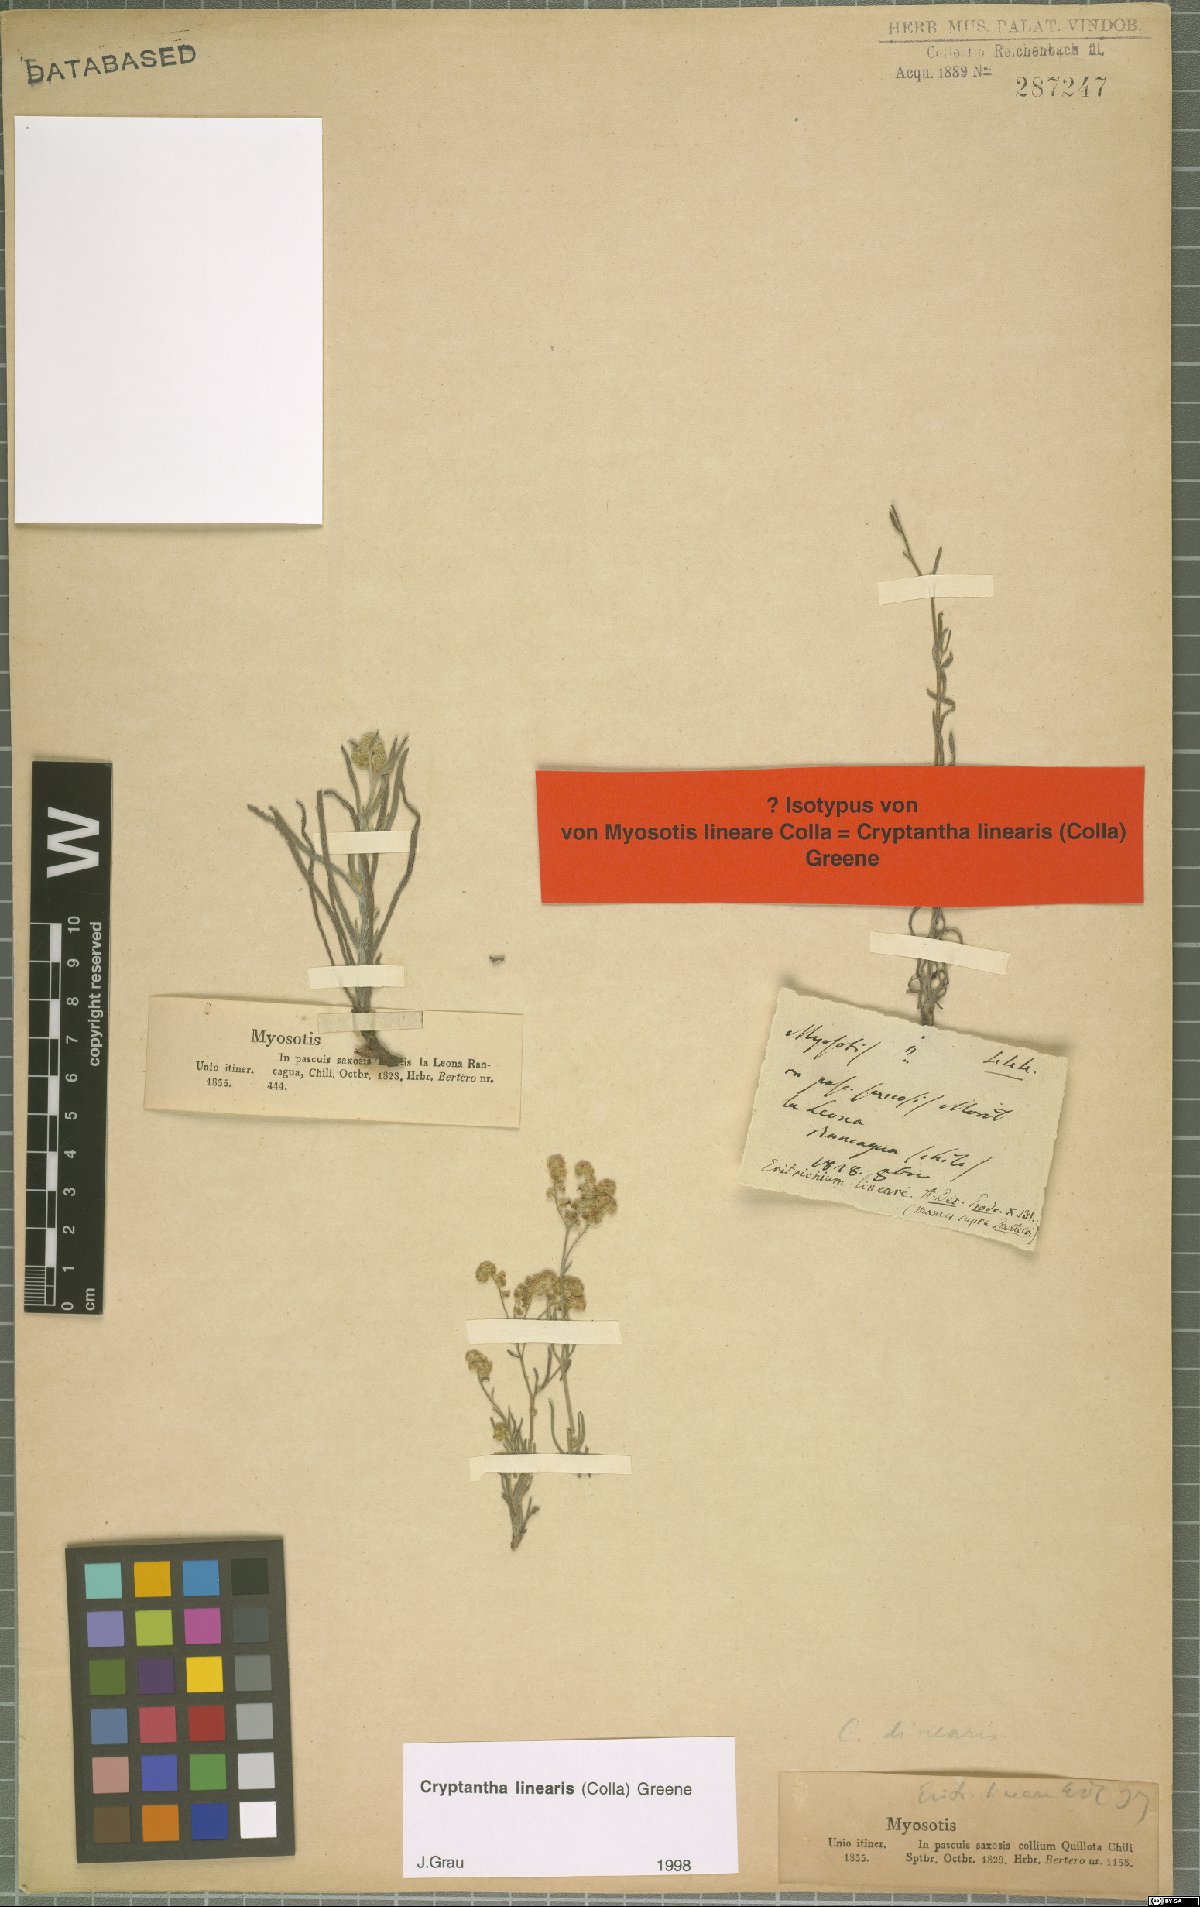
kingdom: Plantae
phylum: Tracheophyta
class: Magnoliopsida
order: Boraginales
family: Boraginaceae
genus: Cryptantha
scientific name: Cryptantha linearis
